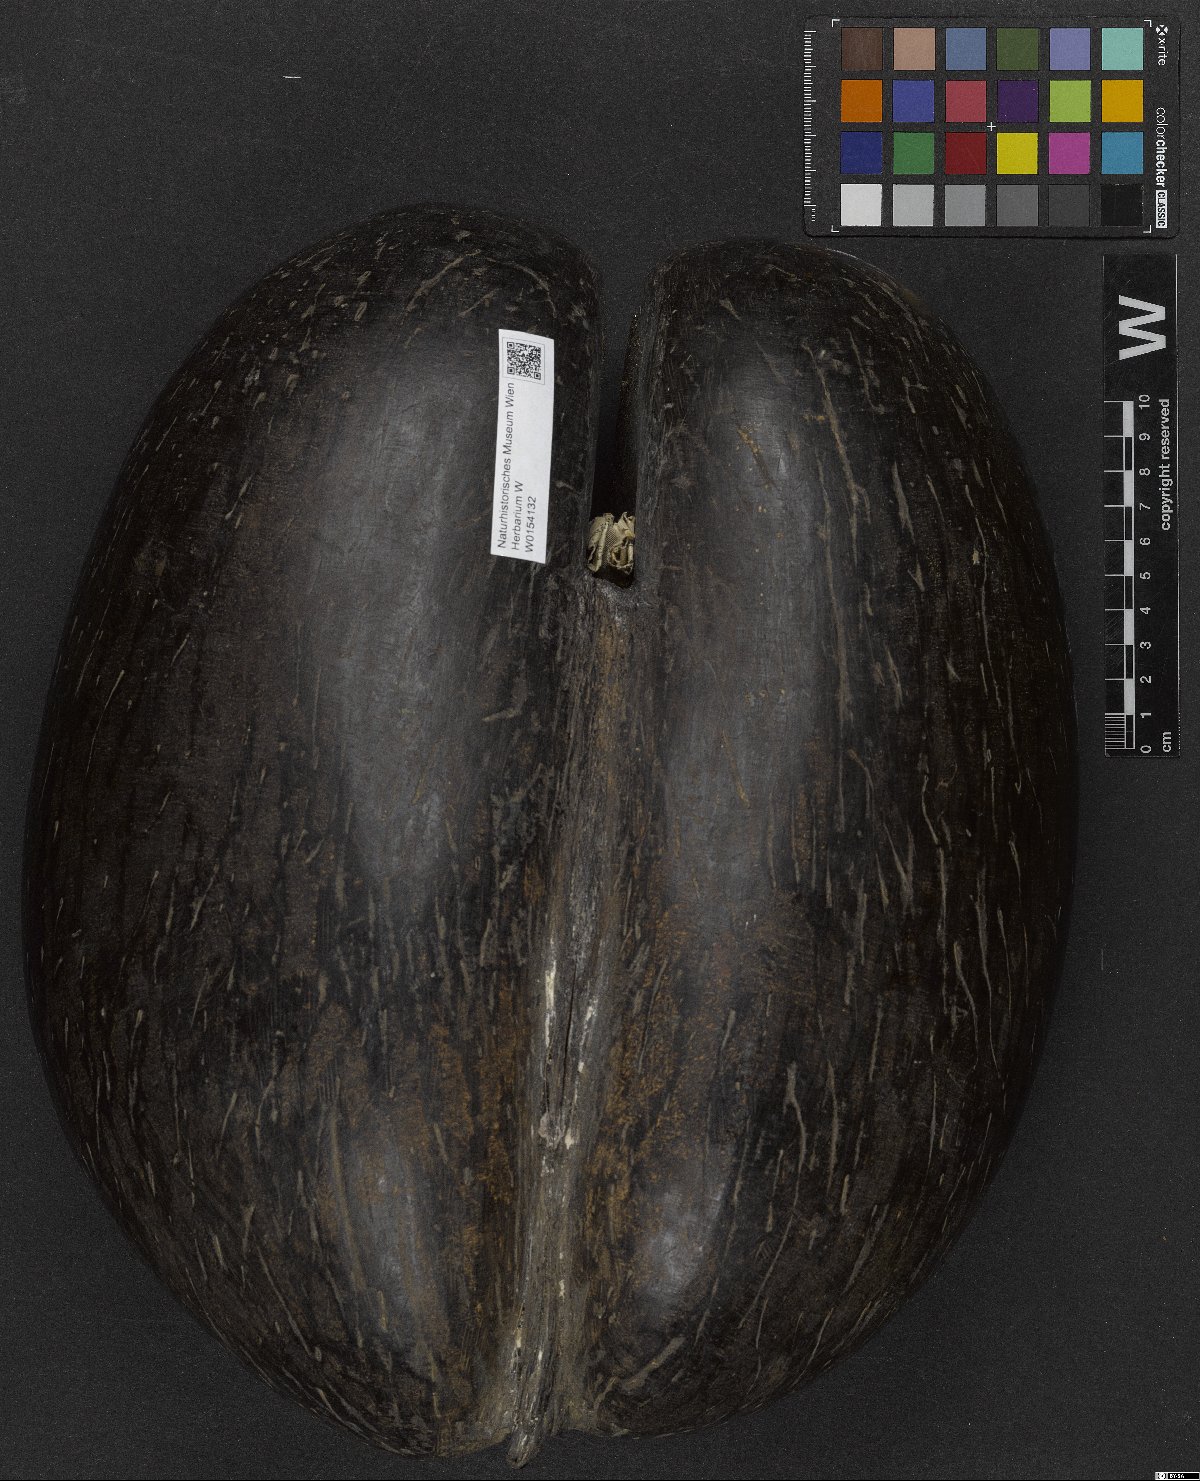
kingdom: Plantae
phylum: Tracheophyta
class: Liliopsida
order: Arecales
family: Arecaceae
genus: Lodoicea
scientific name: Lodoicea maldivica
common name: Double coconut palm
